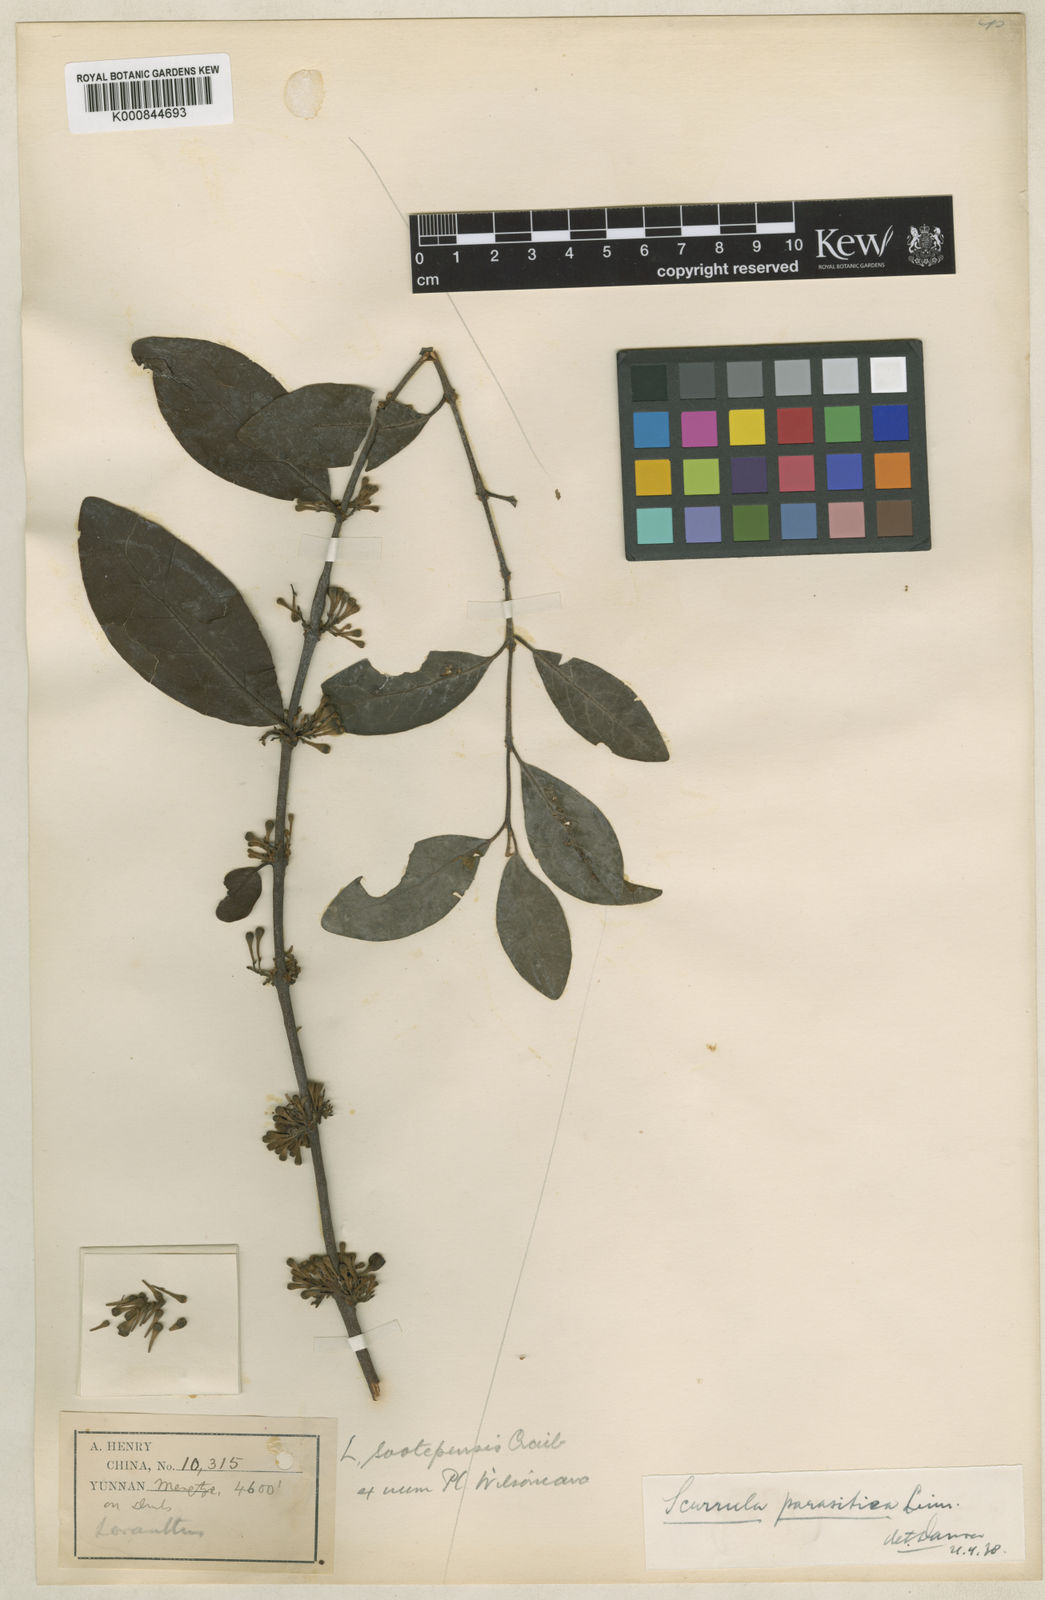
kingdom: Plantae
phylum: Tracheophyta
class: Magnoliopsida
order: Santalales
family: Loranthaceae
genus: Scurrula
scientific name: Scurrula parasitica
